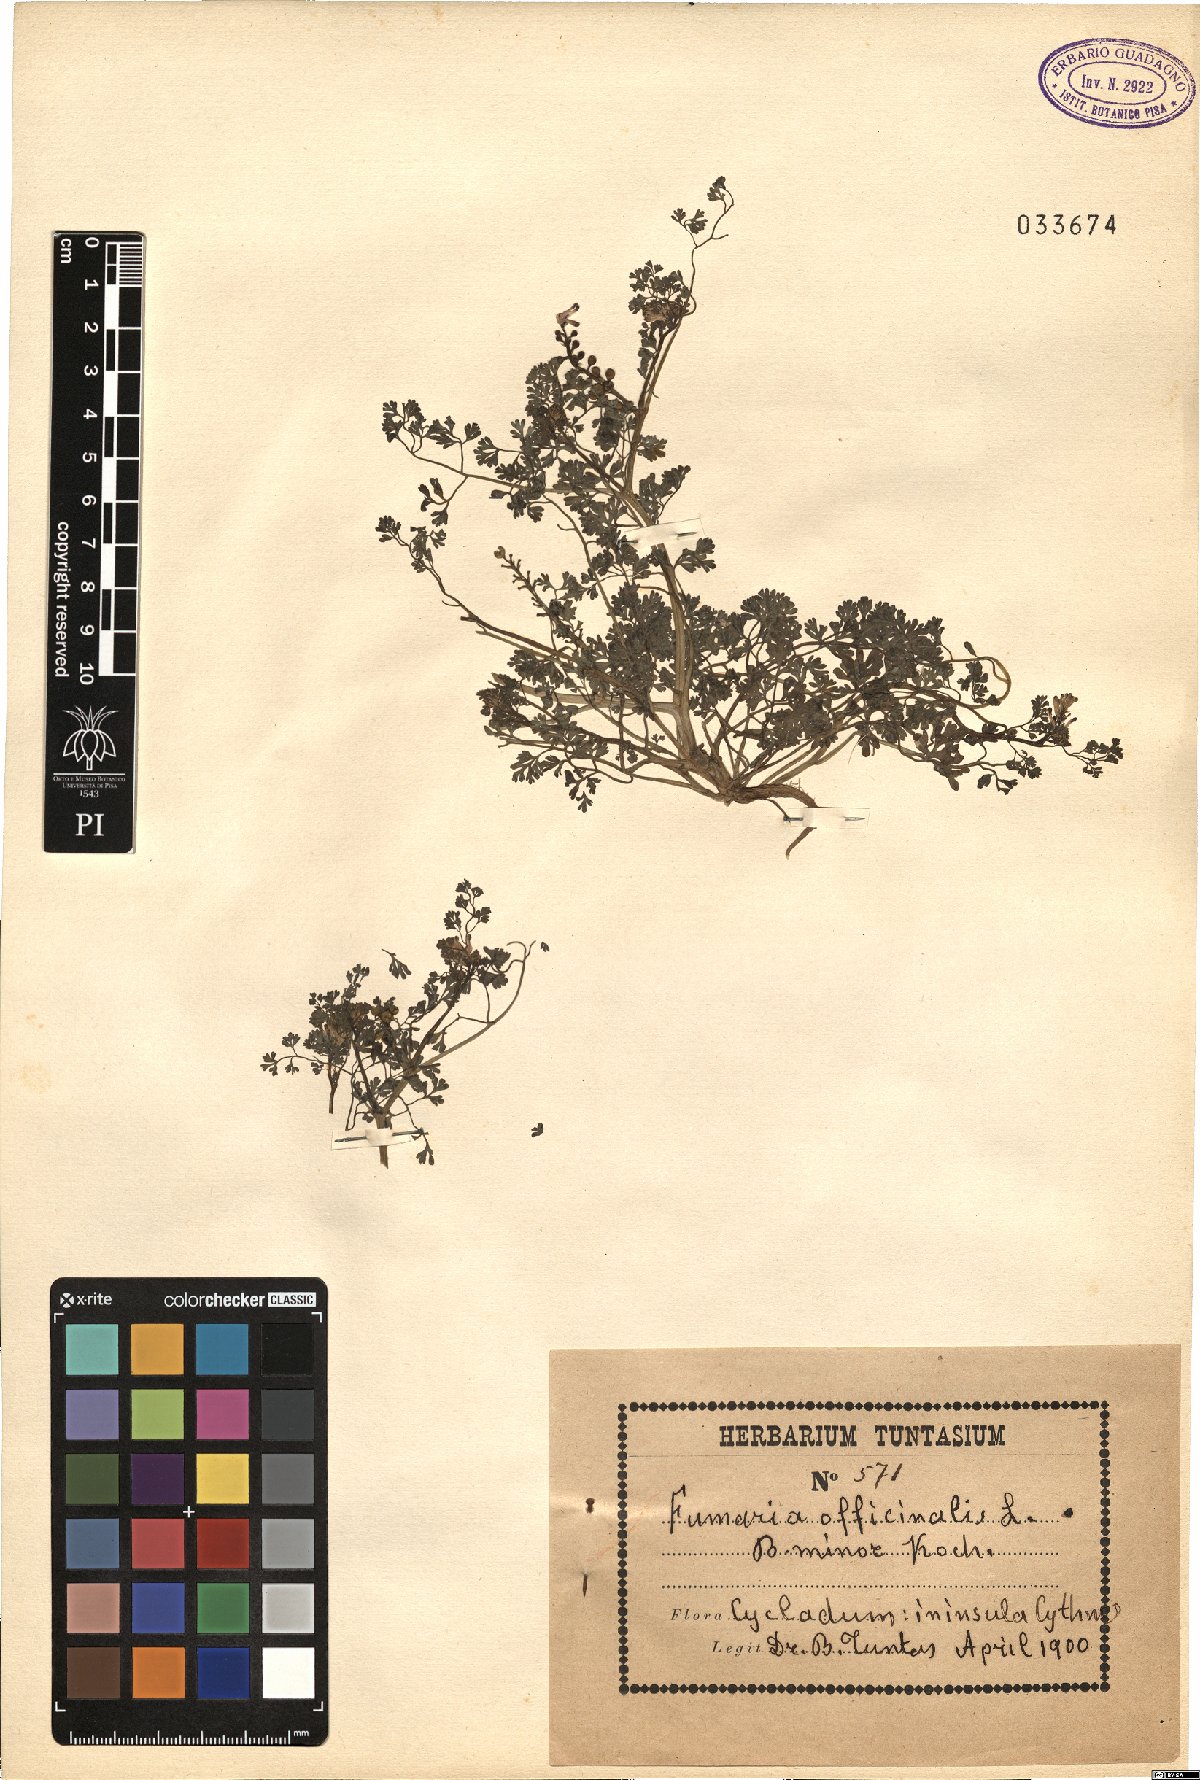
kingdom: Plantae
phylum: Tracheophyta
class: Magnoliopsida
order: Ranunculales
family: Papaveraceae
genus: Fumaria
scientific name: Fumaria officinalis
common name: Common fumitory
